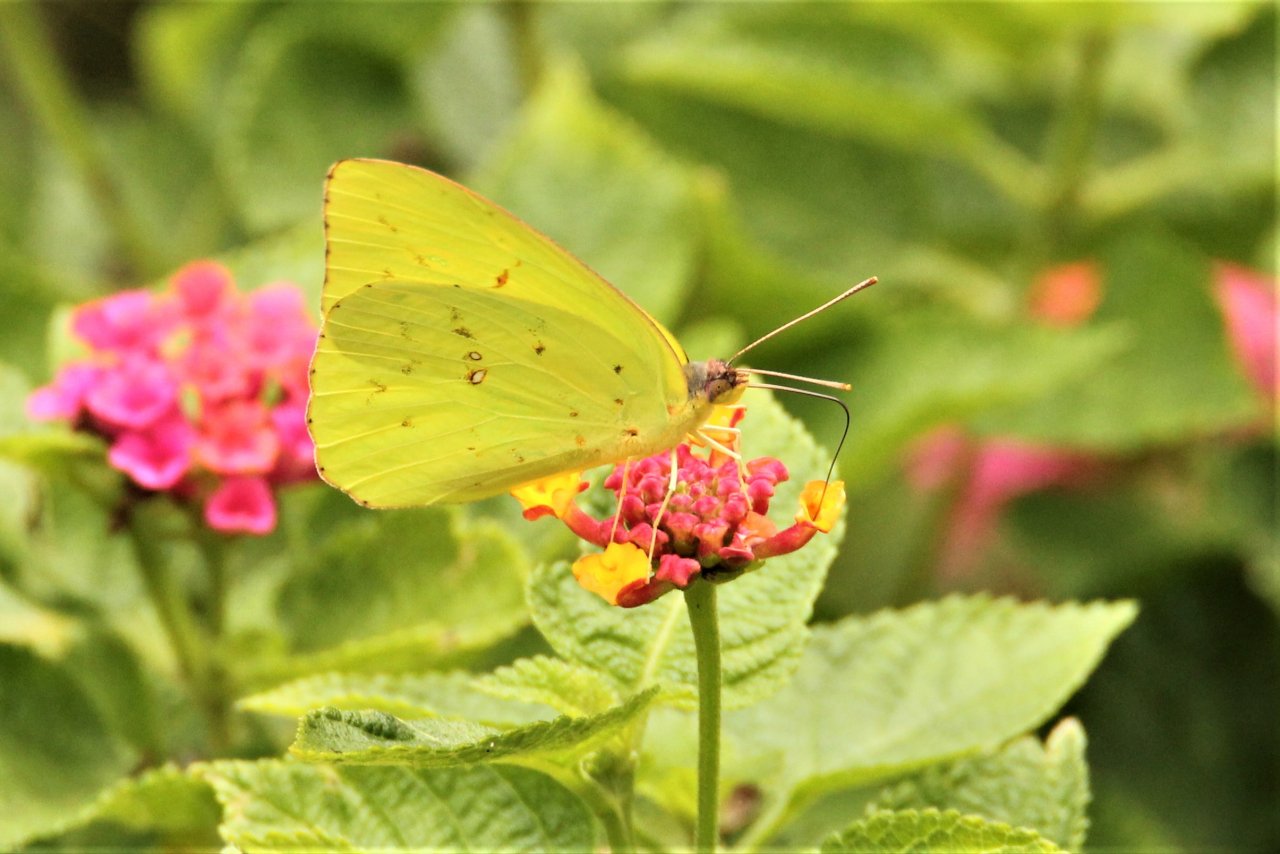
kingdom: Animalia
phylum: Arthropoda
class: Insecta
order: Lepidoptera
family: Pieridae
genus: Phoebis
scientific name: Phoebis sennae
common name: Cloudless Sulphur
